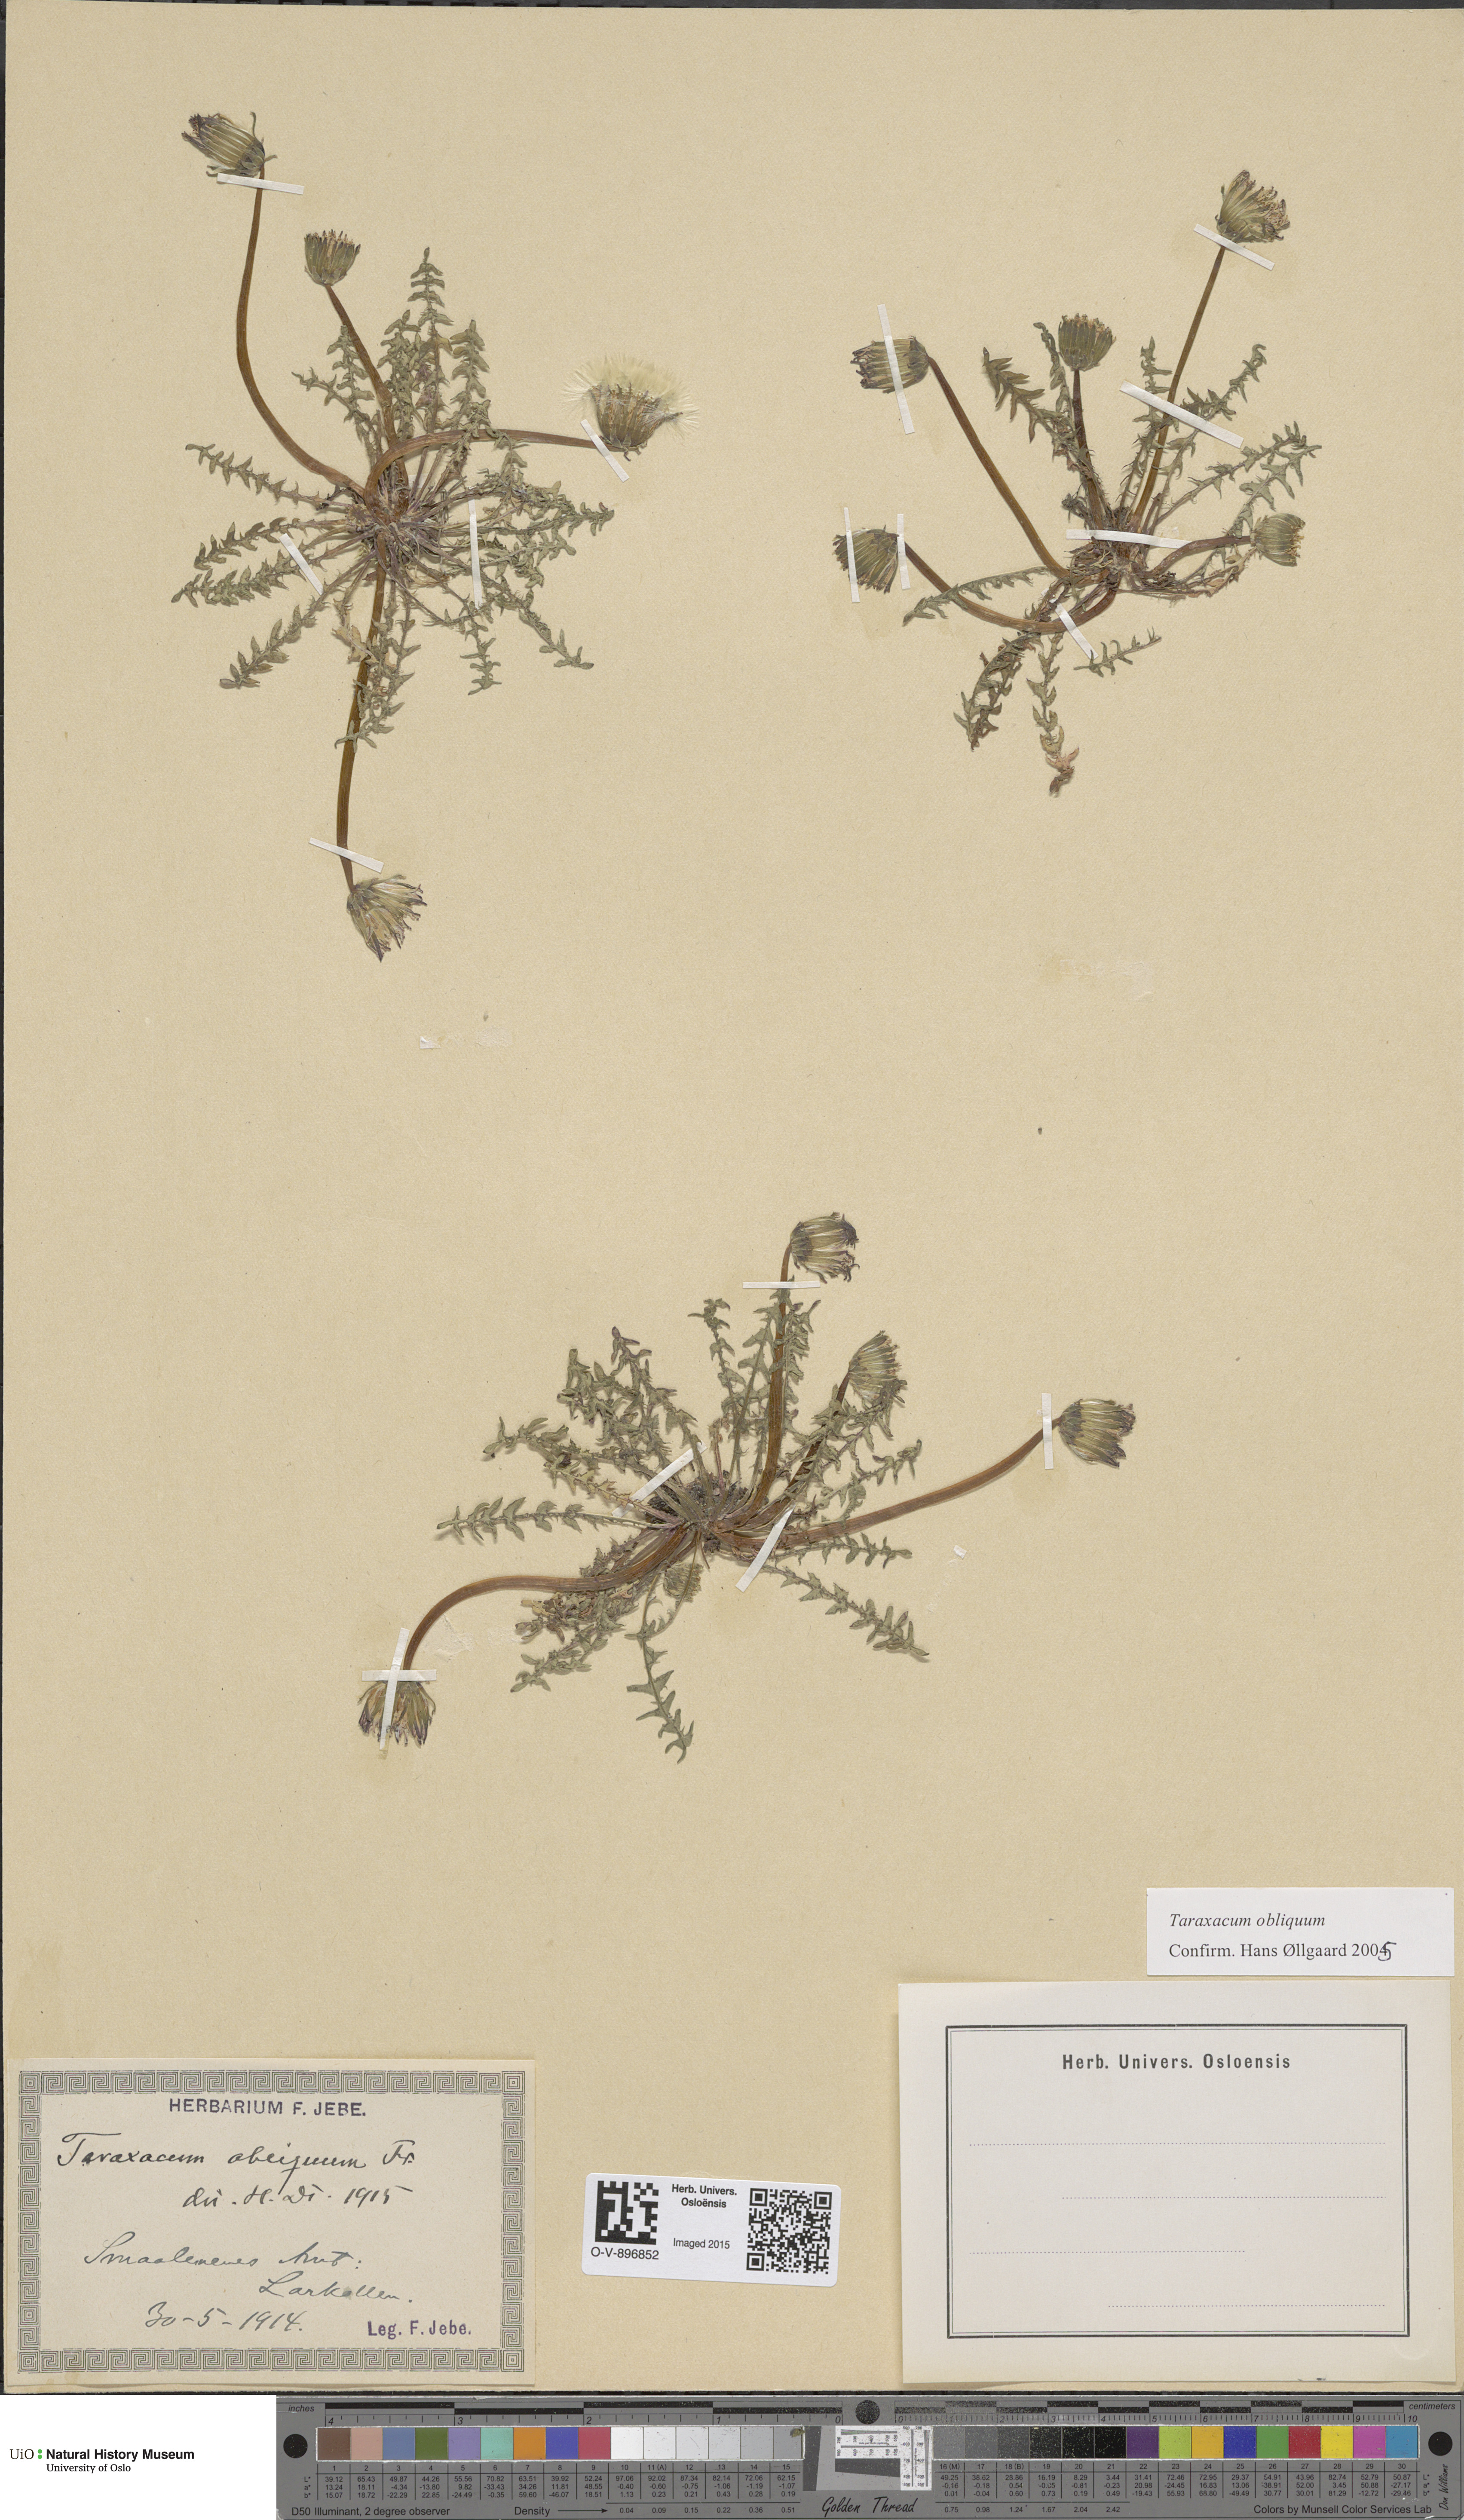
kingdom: Plantae
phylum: Tracheophyta
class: Magnoliopsida
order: Asterales
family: Asteraceae
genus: Taraxacum
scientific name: Taraxacum obliquum
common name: Many-lobed dandelion
